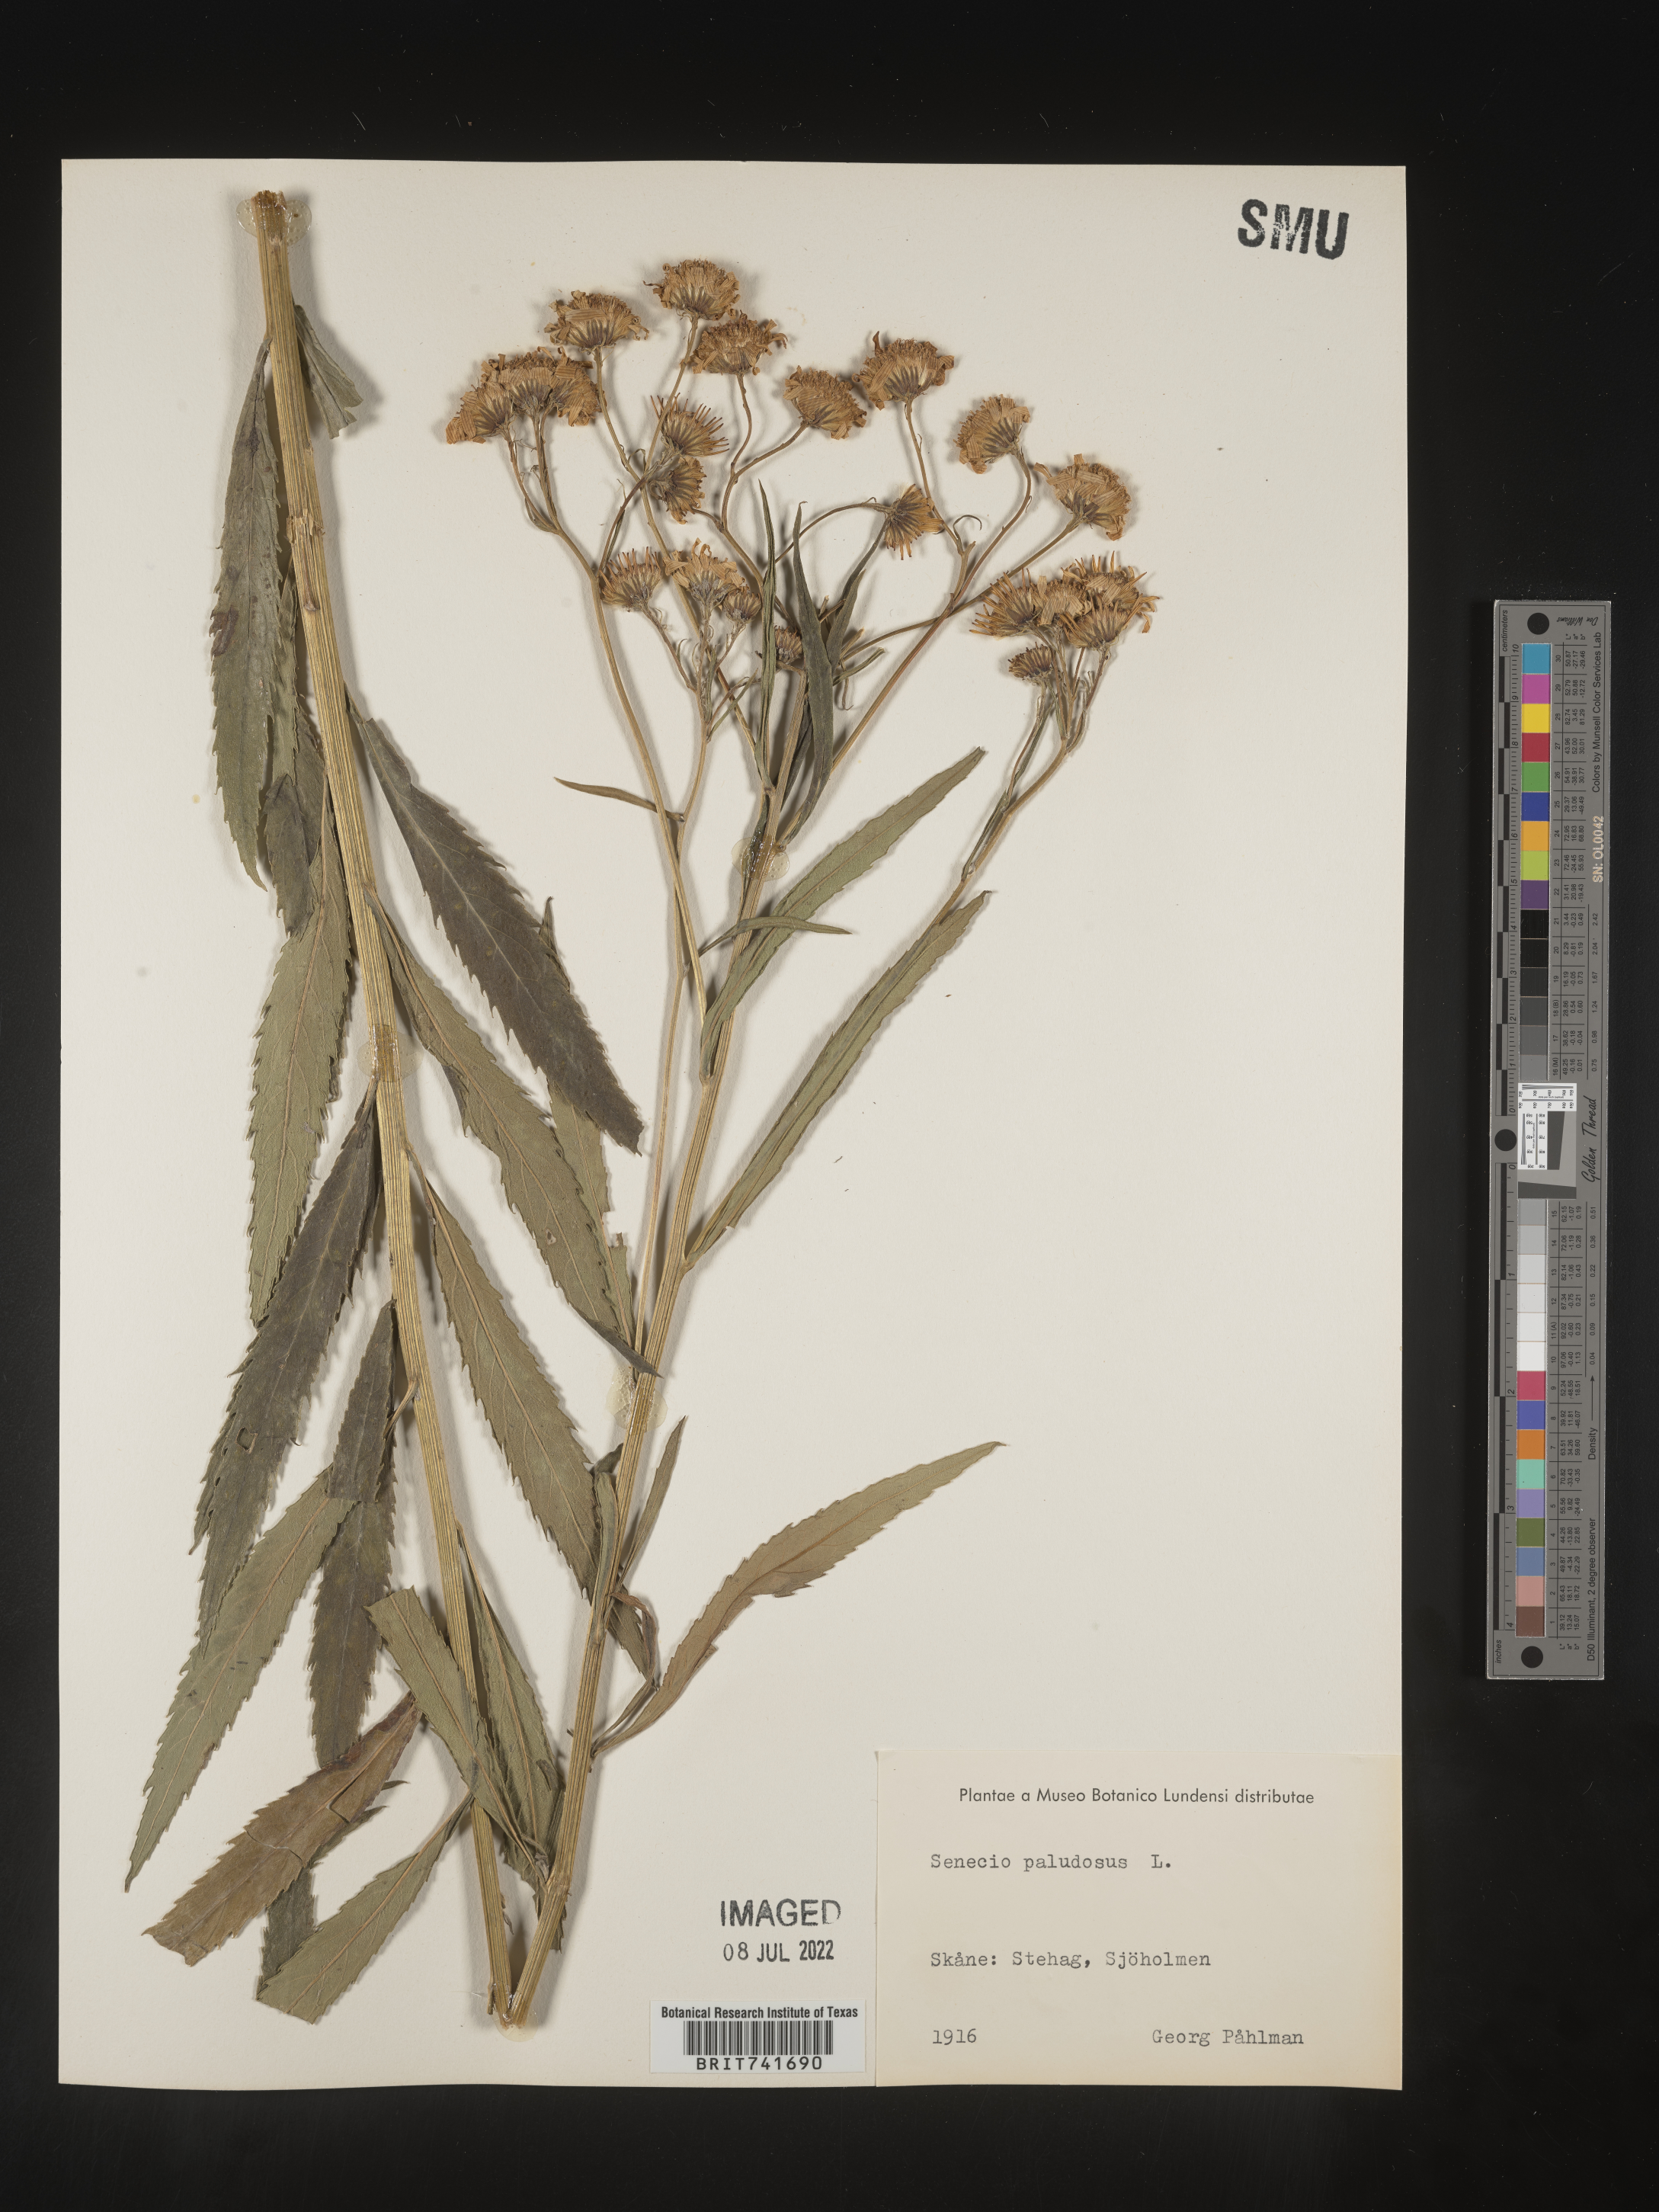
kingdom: Plantae
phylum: Tracheophyta
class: Magnoliopsida
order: Asterales
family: Asteraceae
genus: Senecio
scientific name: Senecio
